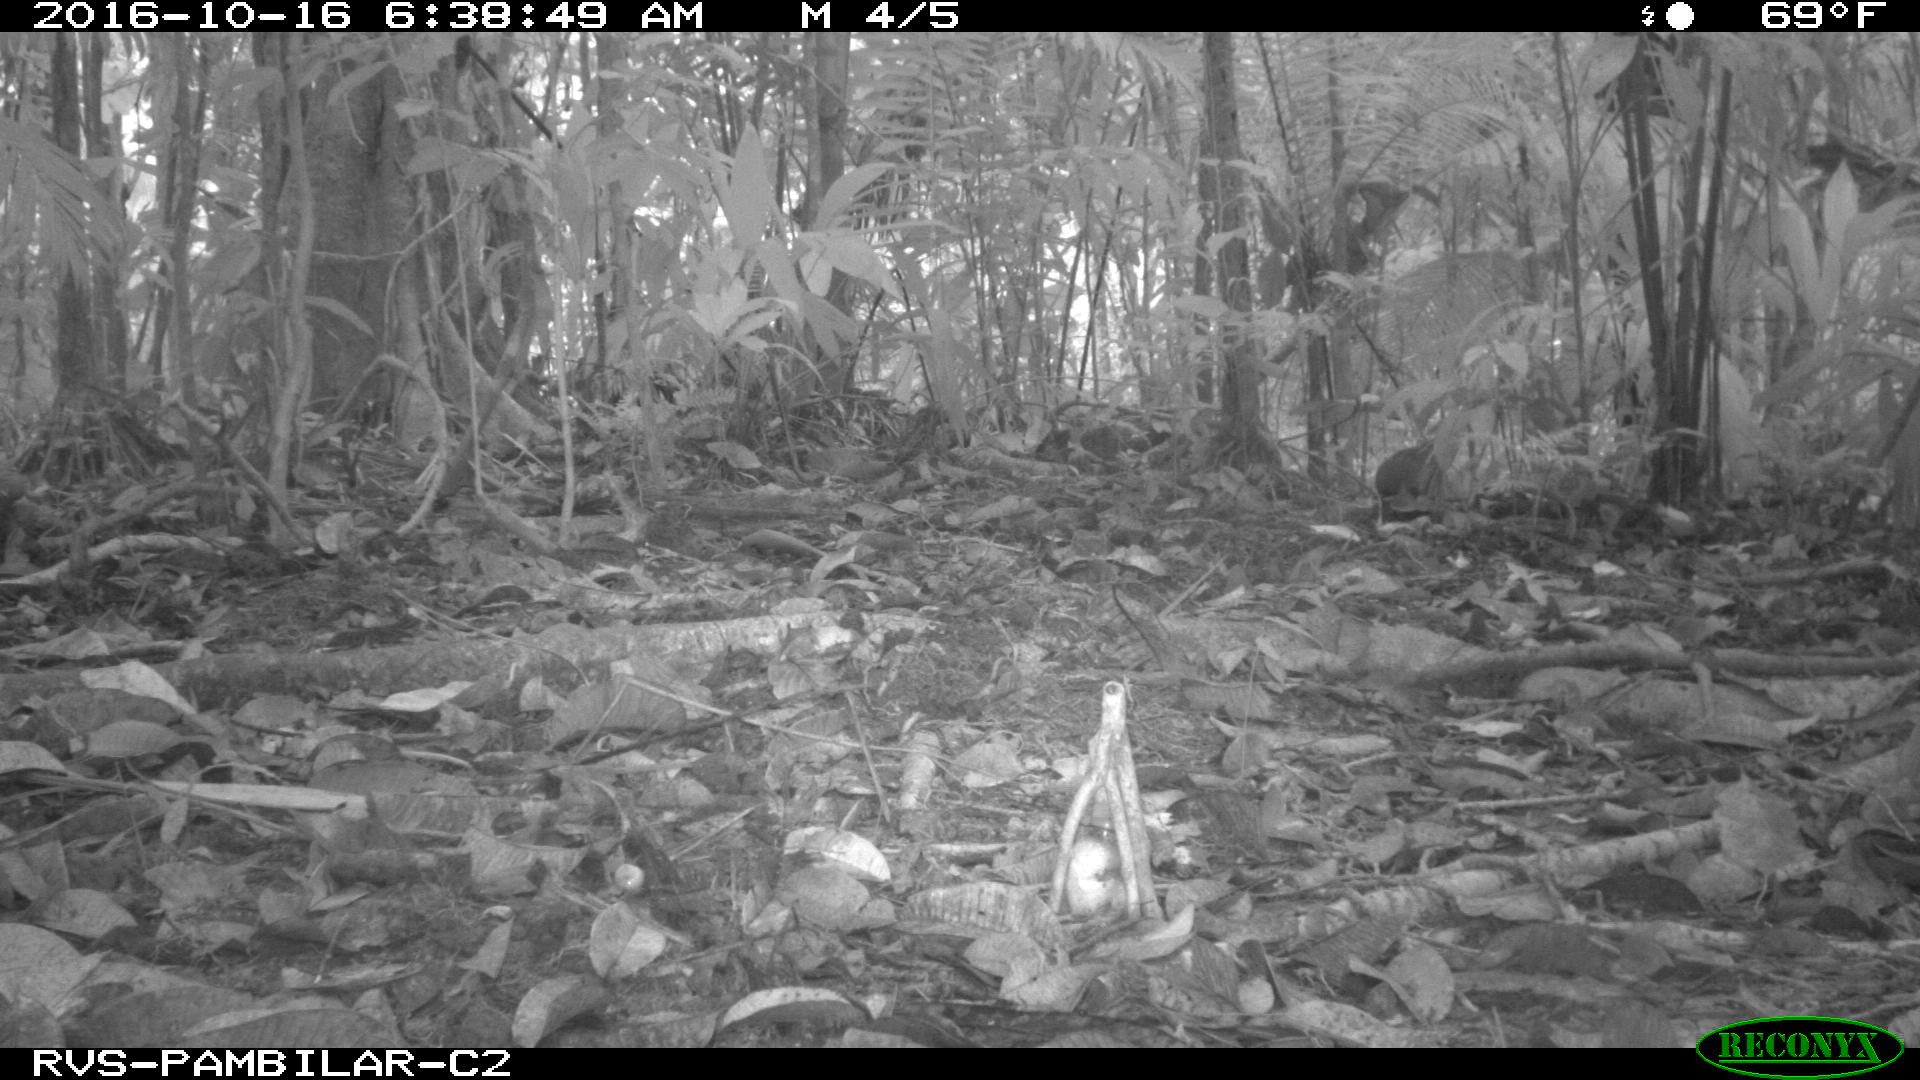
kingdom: Animalia
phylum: Chordata
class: Mammalia
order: Rodentia
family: Dasyproctidae
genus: Dasyprocta
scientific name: Dasyprocta punctata
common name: Central american agouti
